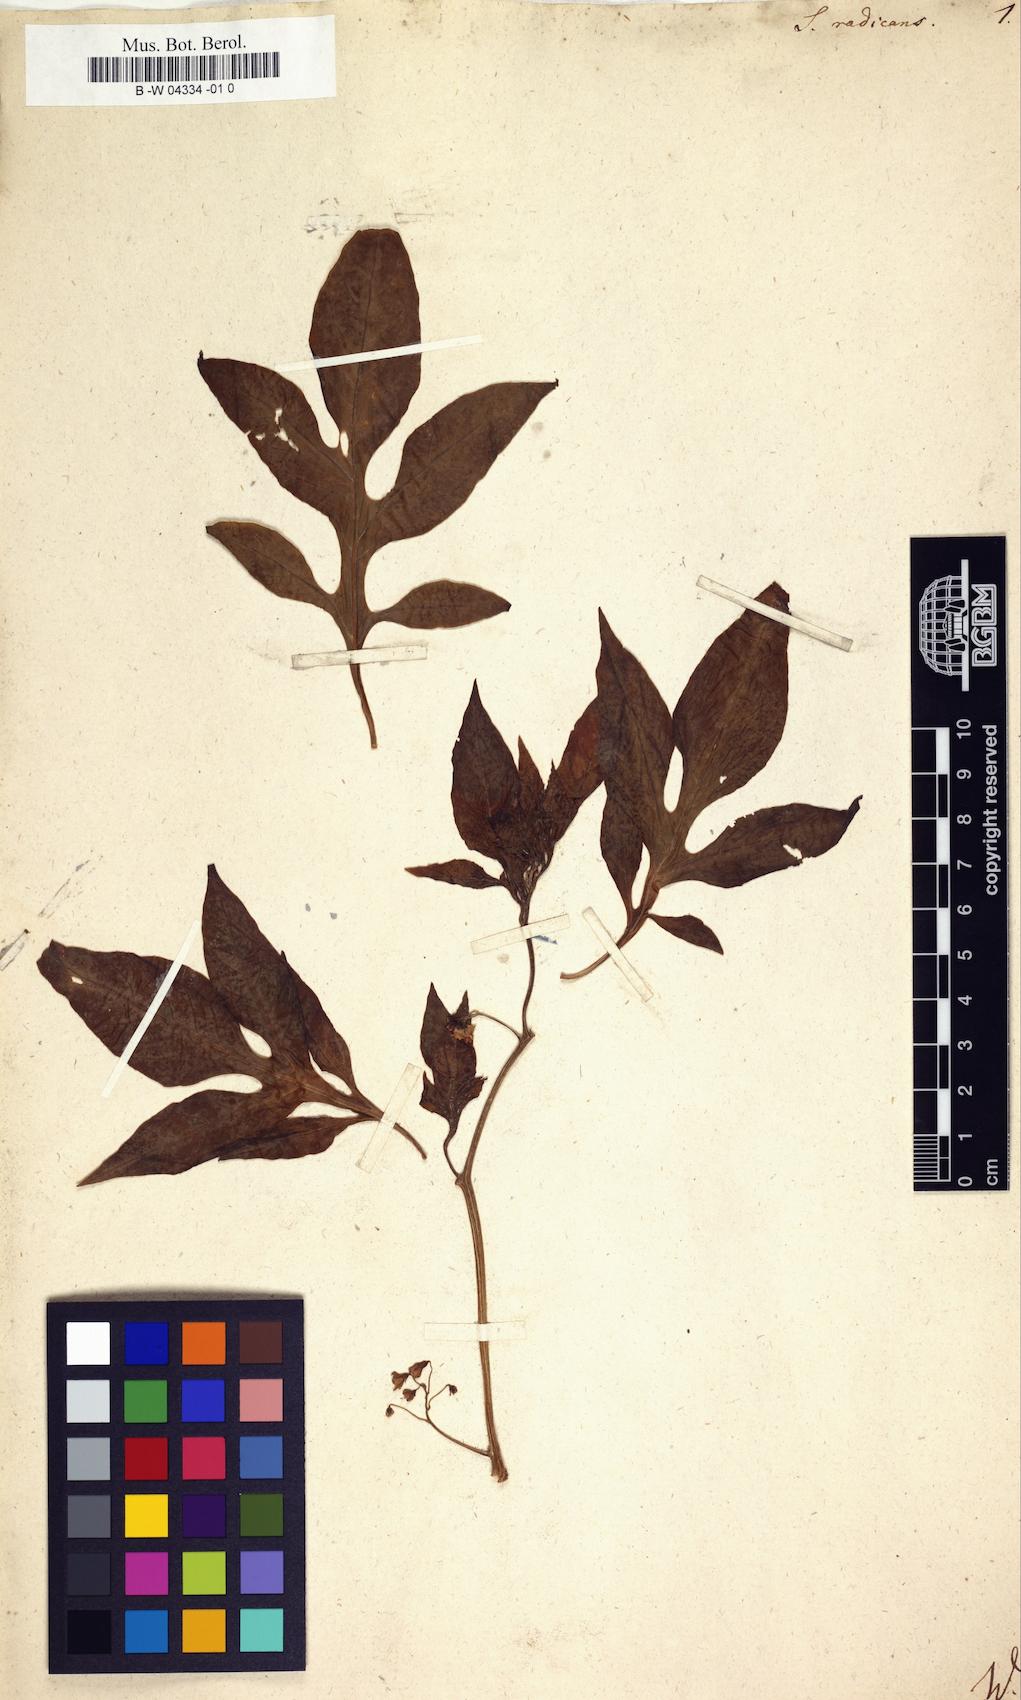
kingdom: Plantae
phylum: Tracheophyta
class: Magnoliopsida
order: Solanales
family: Solanaceae
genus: Solanum
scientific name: Solanum radicans
